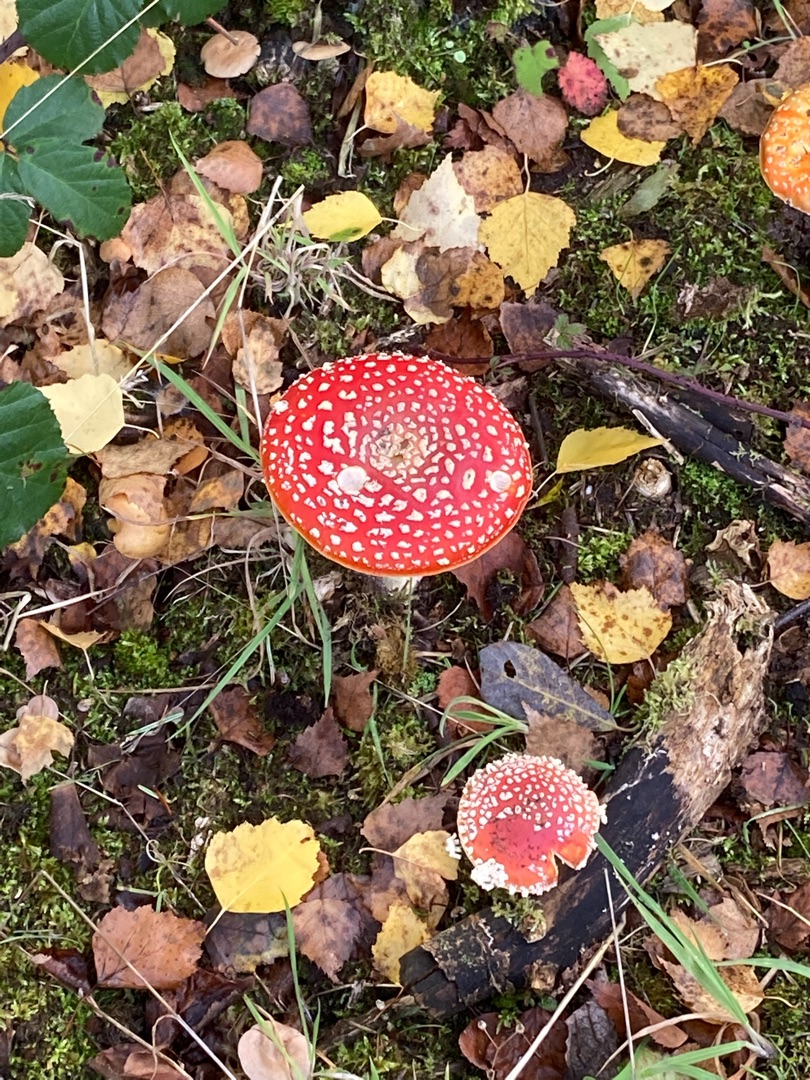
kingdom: Fungi
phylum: Basidiomycota
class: Agaricomycetes
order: Agaricales
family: Amanitaceae
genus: Amanita
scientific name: Amanita muscaria
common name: Rød fluesvamp
